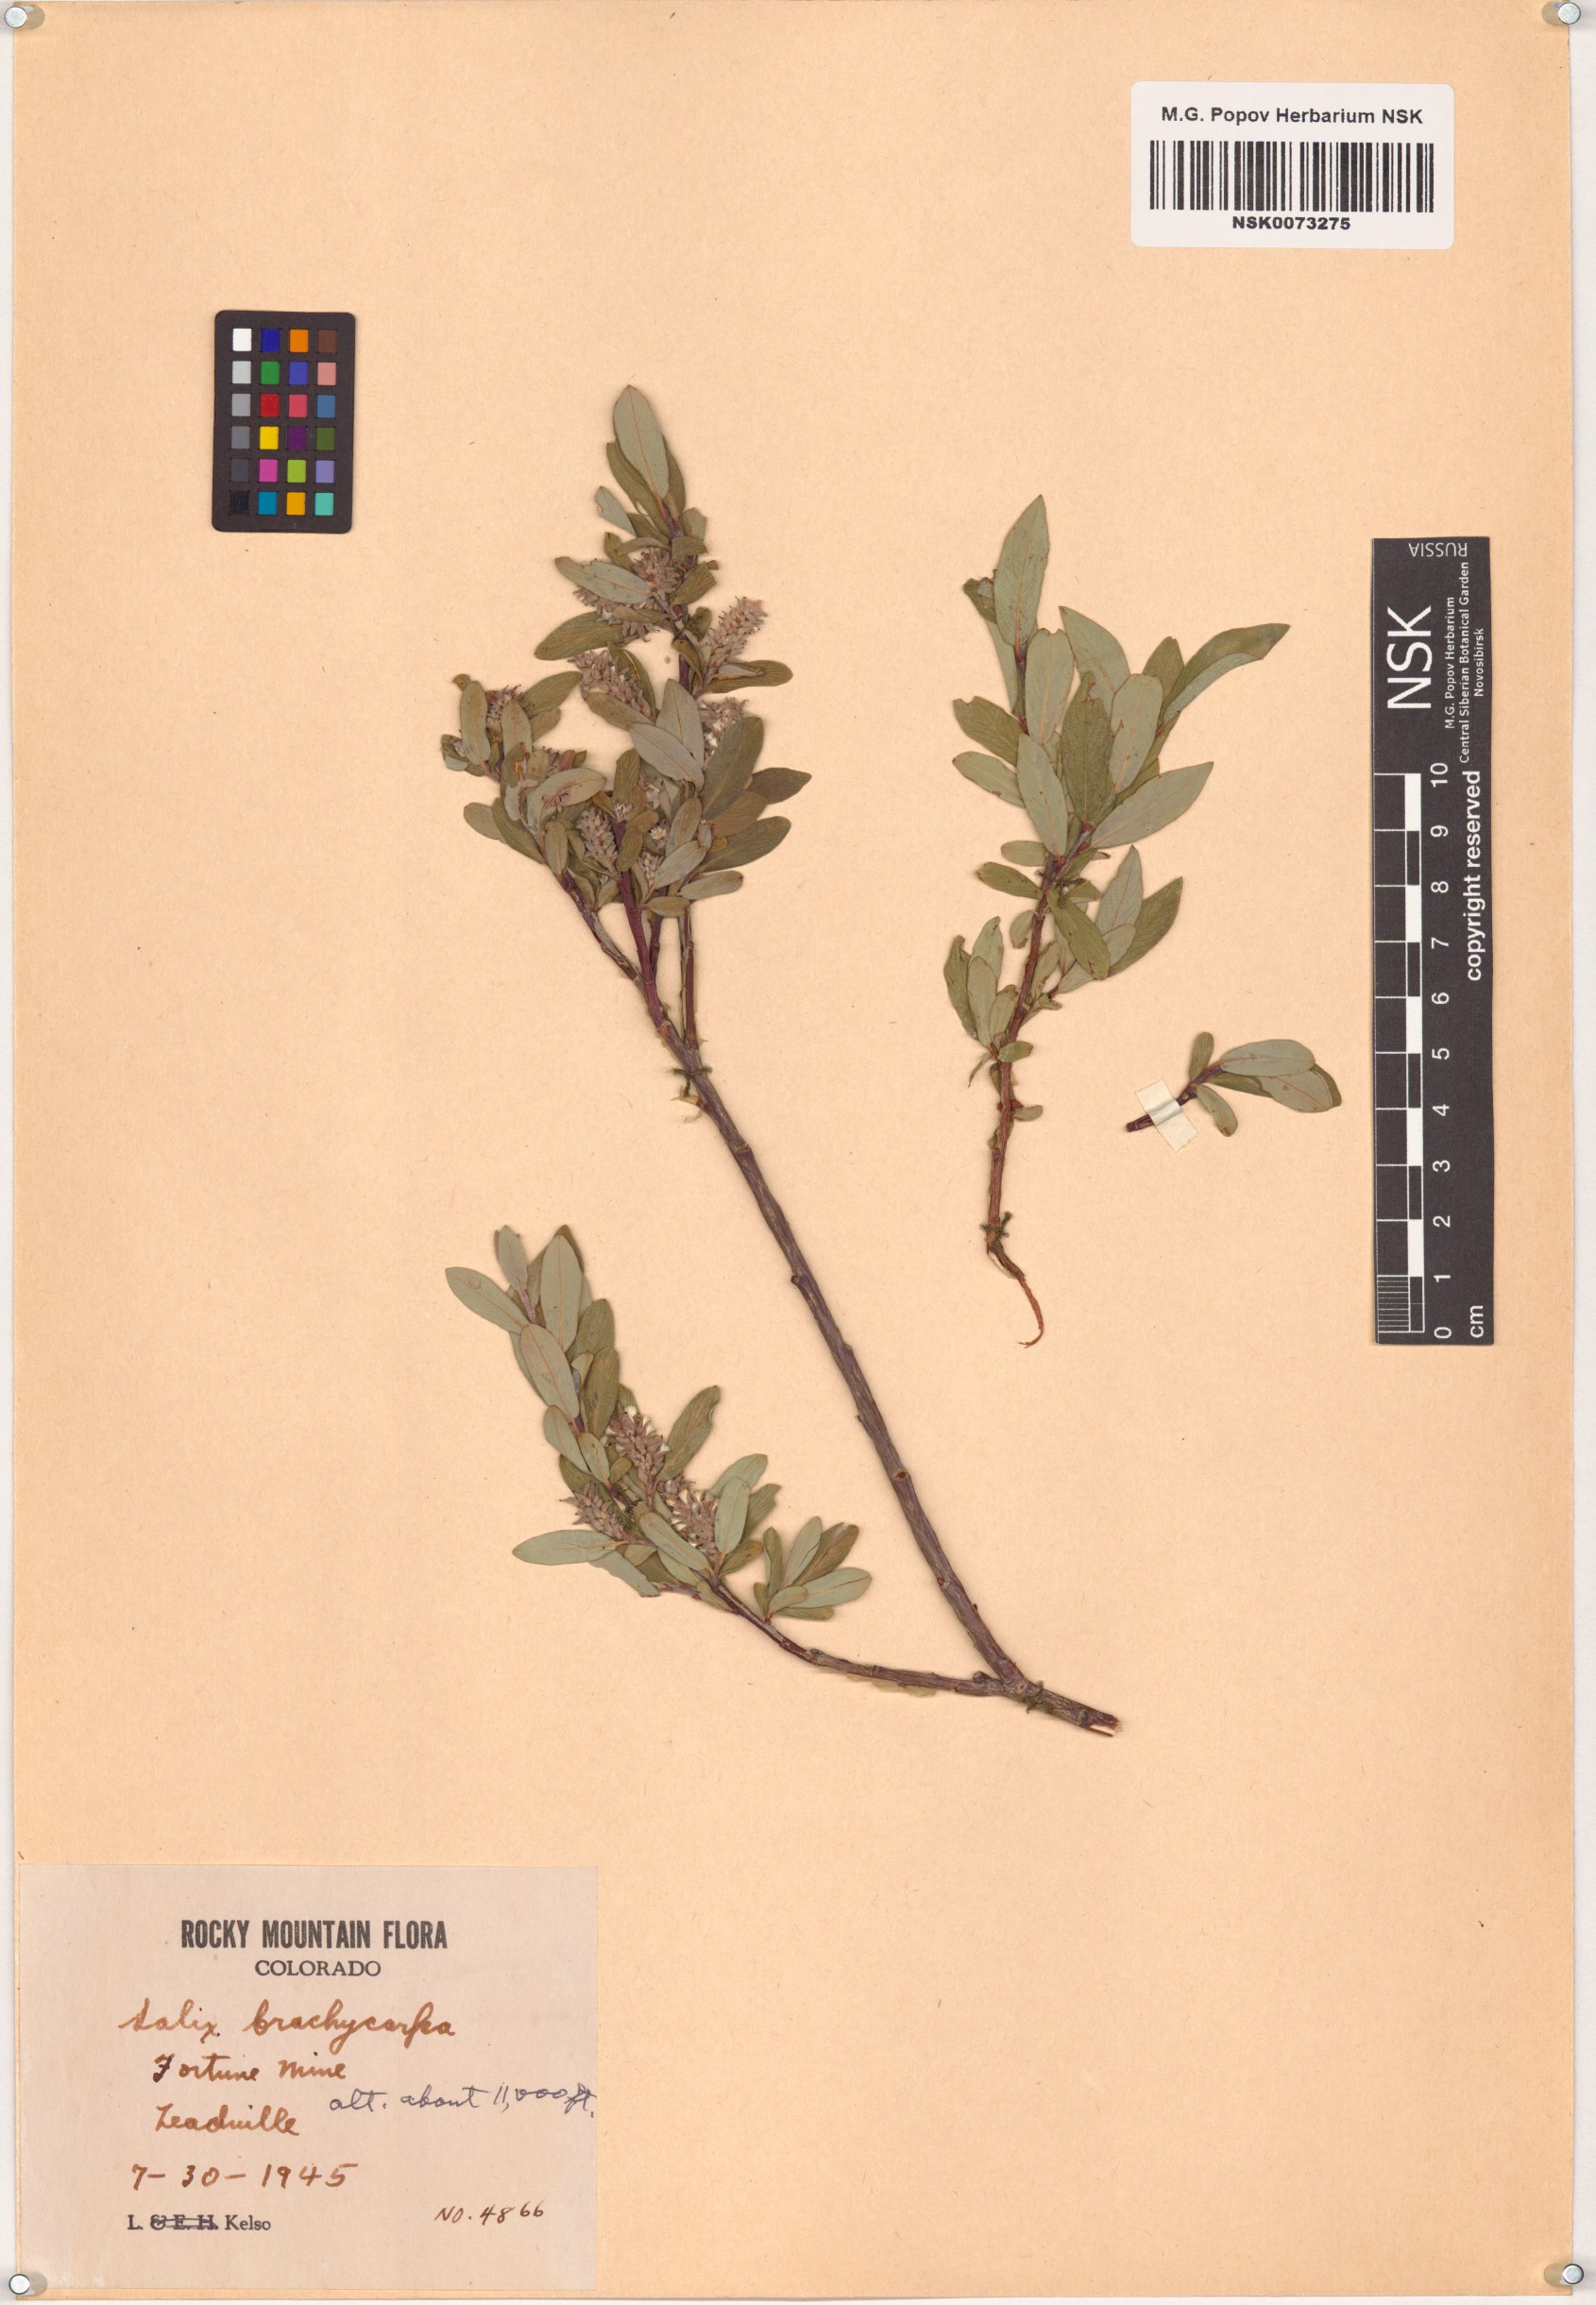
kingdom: Plantae
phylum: Tracheophyta
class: Magnoliopsida
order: Malpighiales
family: Salicaceae
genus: Salix
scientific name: Salix brachycarpa
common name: Barren-ground willow
